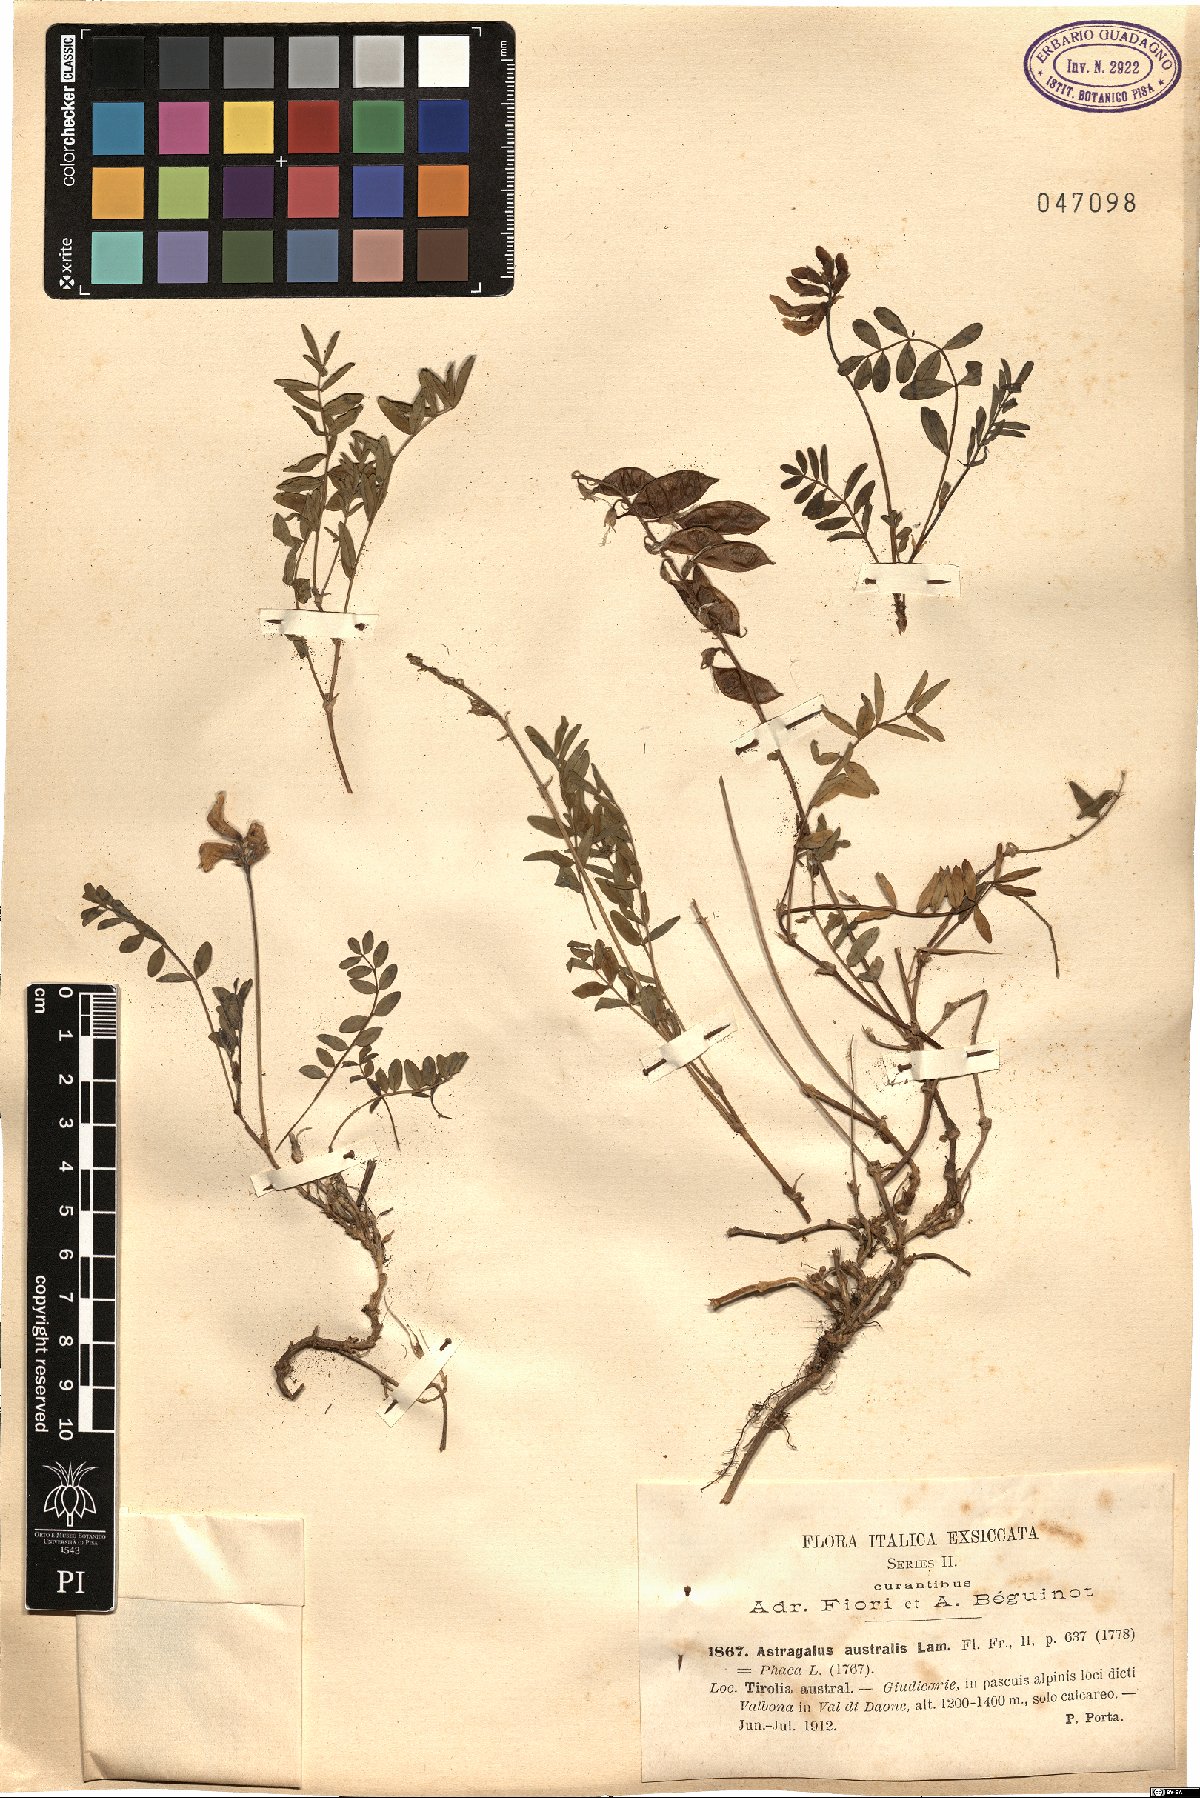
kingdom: Plantae
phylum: Tracheophyta
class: Magnoliopsida
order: Fabales
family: Fabaceae
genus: Astragalus
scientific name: Astragalus australis
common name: Indian milk-vetch
